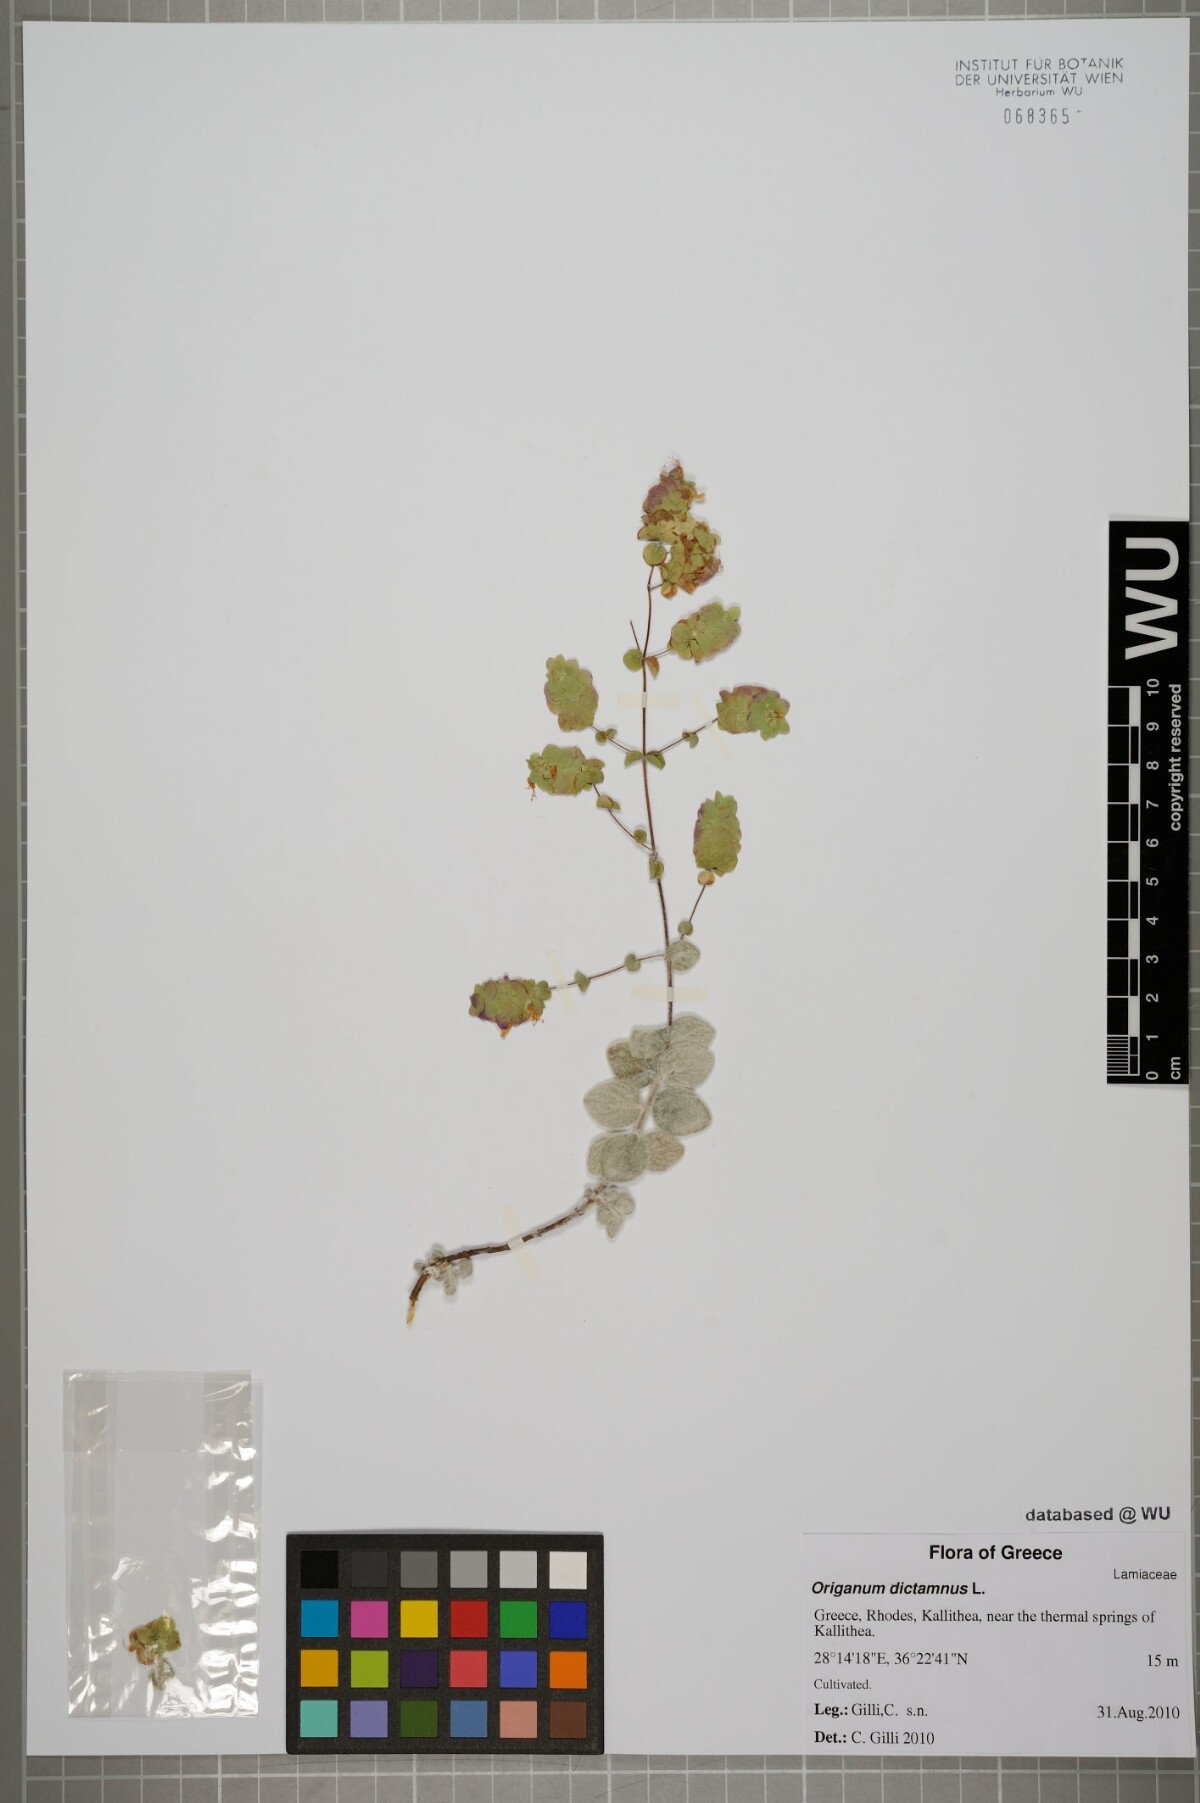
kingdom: Plantae
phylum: Tracheophyta
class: Magnoliopsida
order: Lamiales
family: Lamiaceae
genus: Origanum
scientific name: Origanum dictamnus
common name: Cretan dittany
